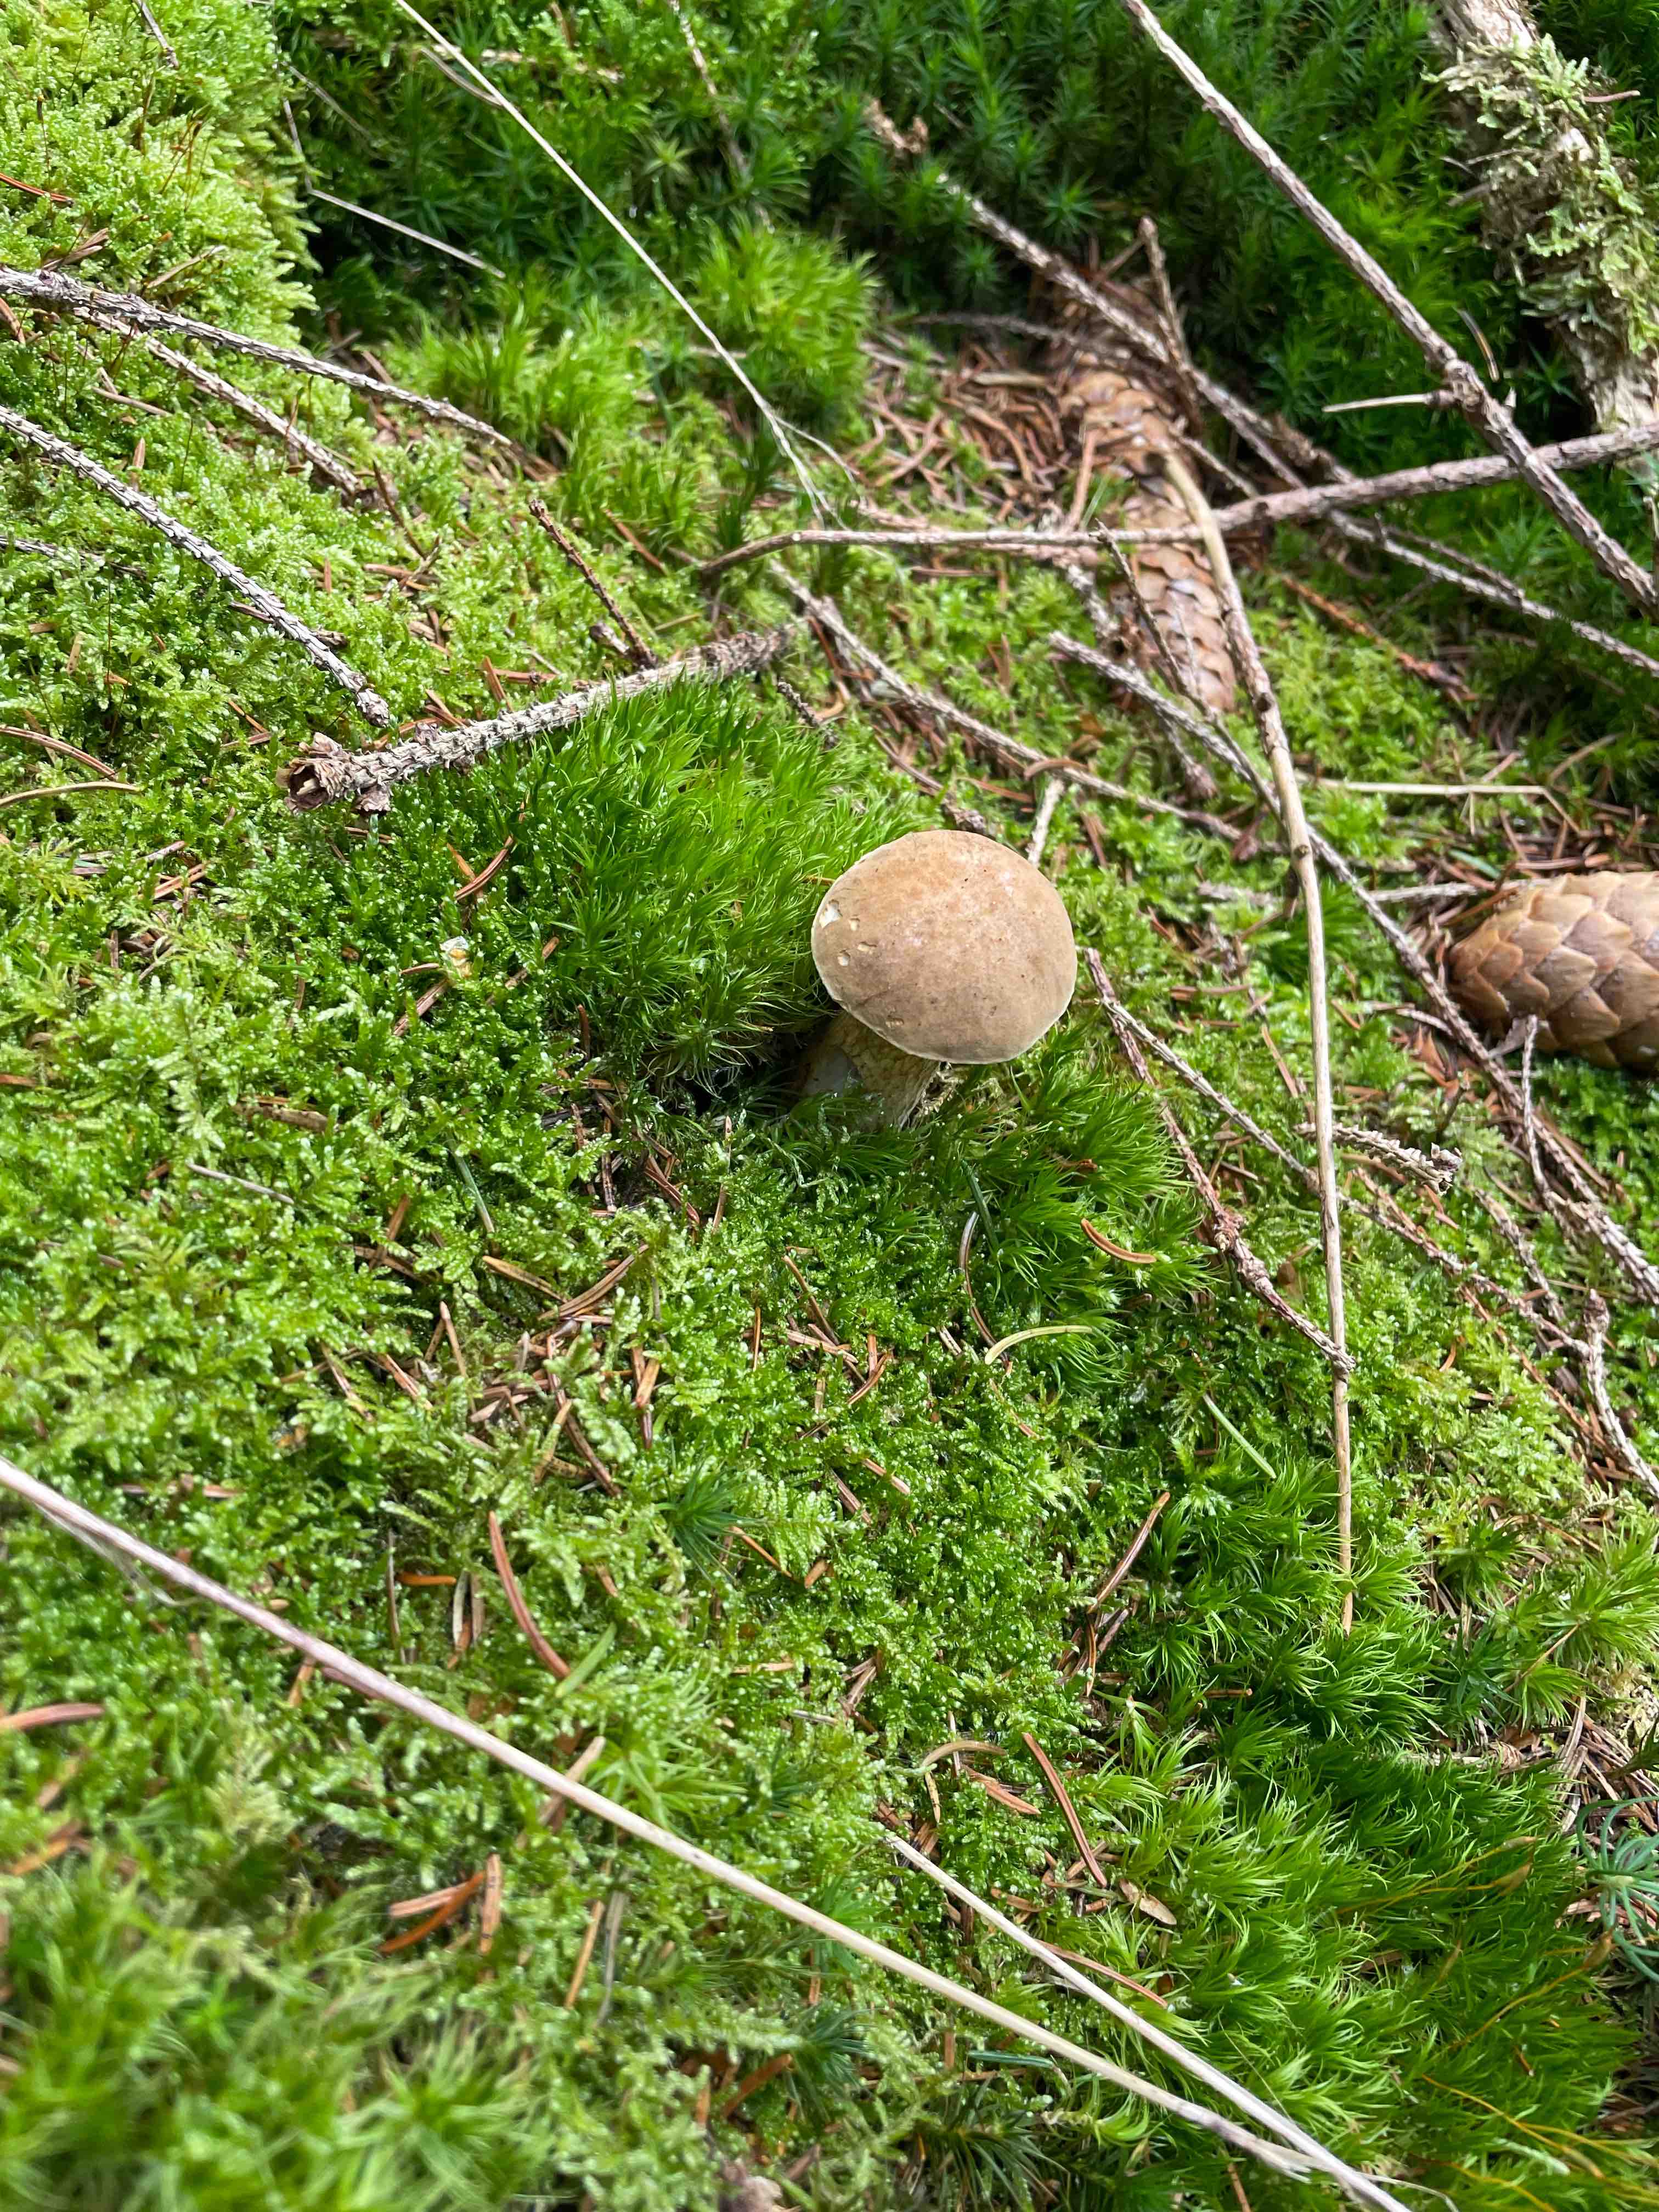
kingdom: Fungi
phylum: Basidiomycota
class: Agaricomycetes
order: Boletales
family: Boletaceae
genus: Tylopilus
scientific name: Tylopilus felleus
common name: galderørhat
